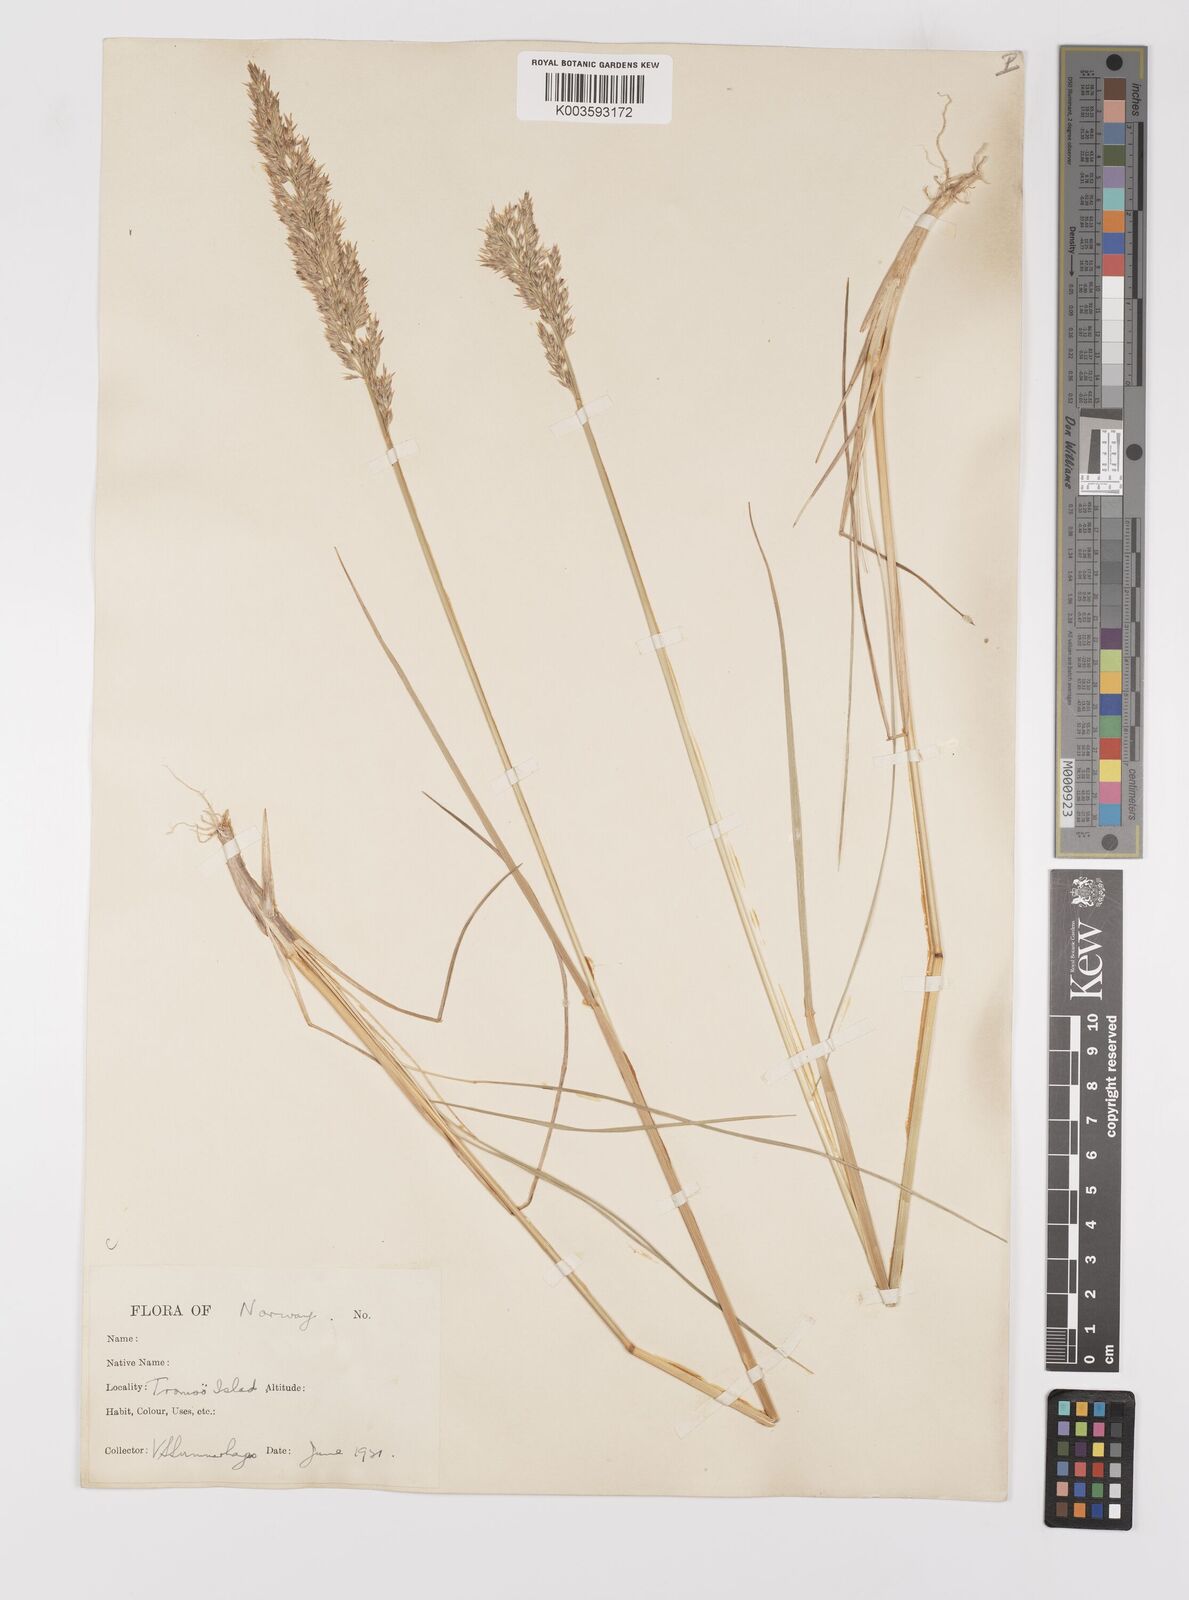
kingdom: Plantae
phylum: Tracheophyta
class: Liliopsida
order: Poales
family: Poaceae
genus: Calamagrostis
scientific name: Calamagrostis
